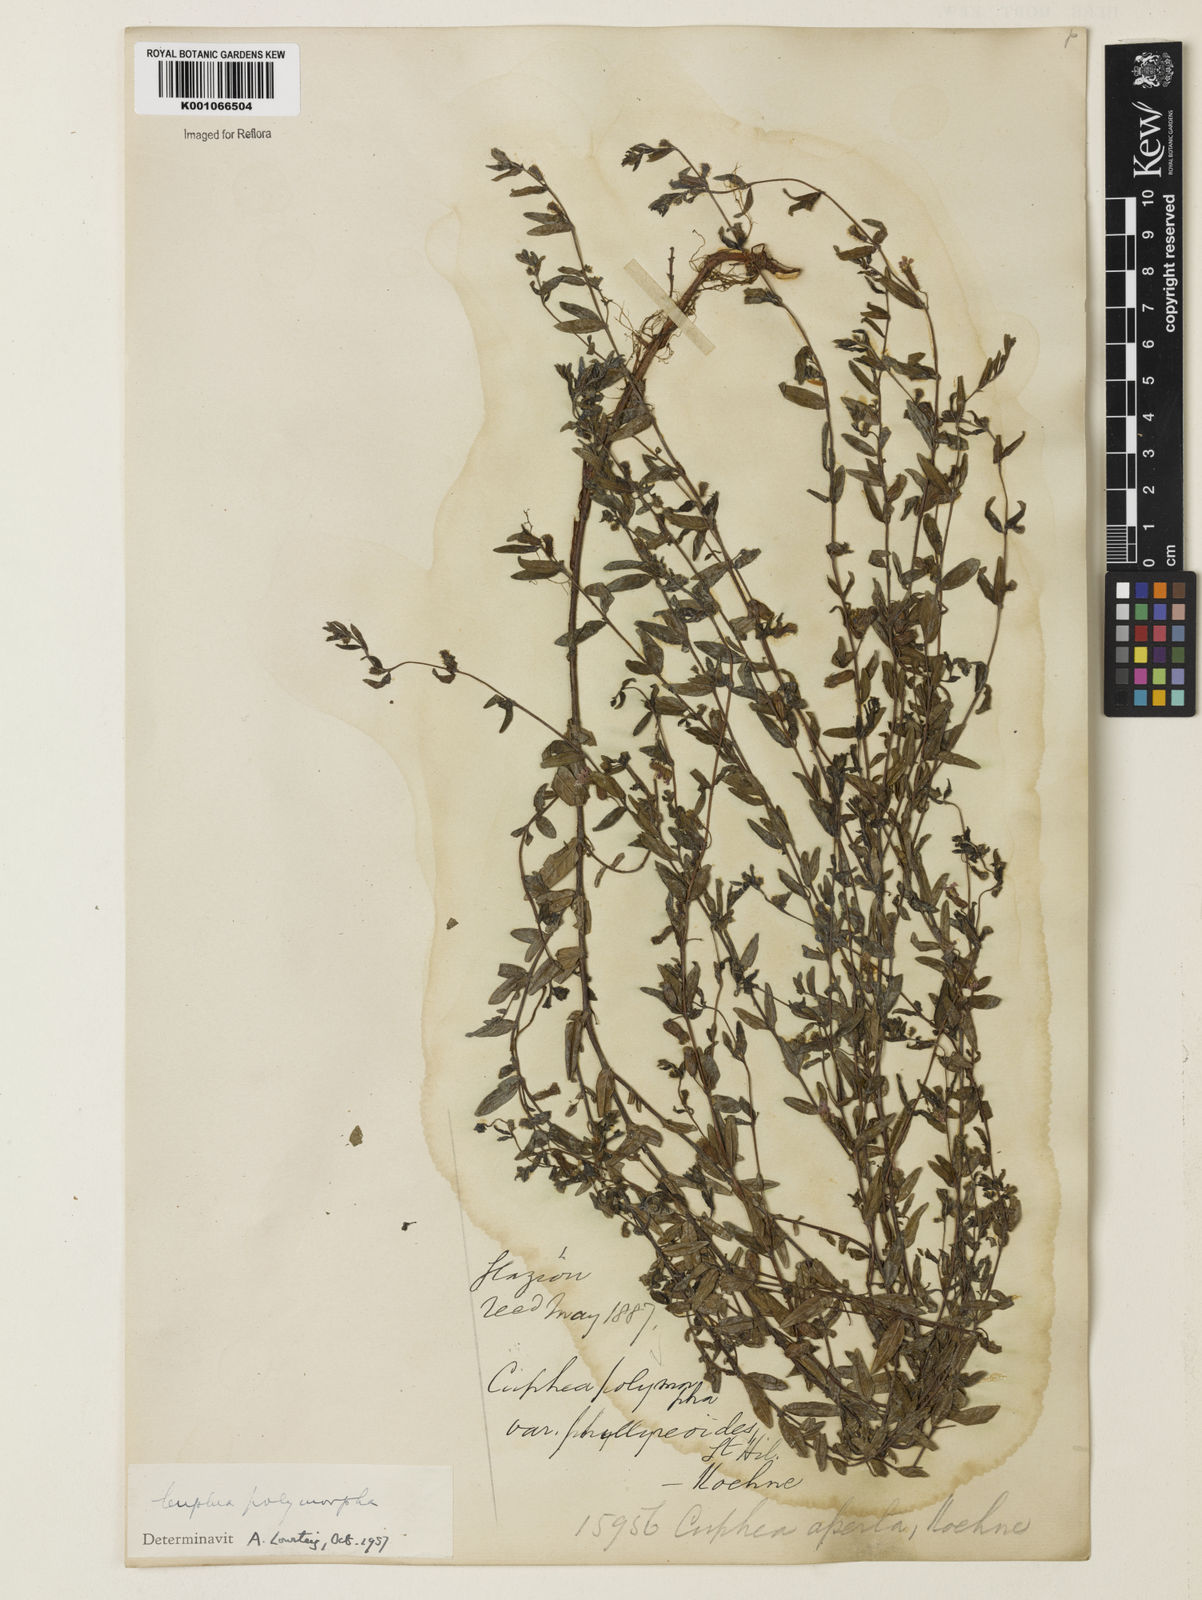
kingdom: Plantae
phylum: Tracheophyta
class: Magnoliopsida
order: Myrtales
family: Lythraceae
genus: Cuphea
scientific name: Cuphea polymorpha
